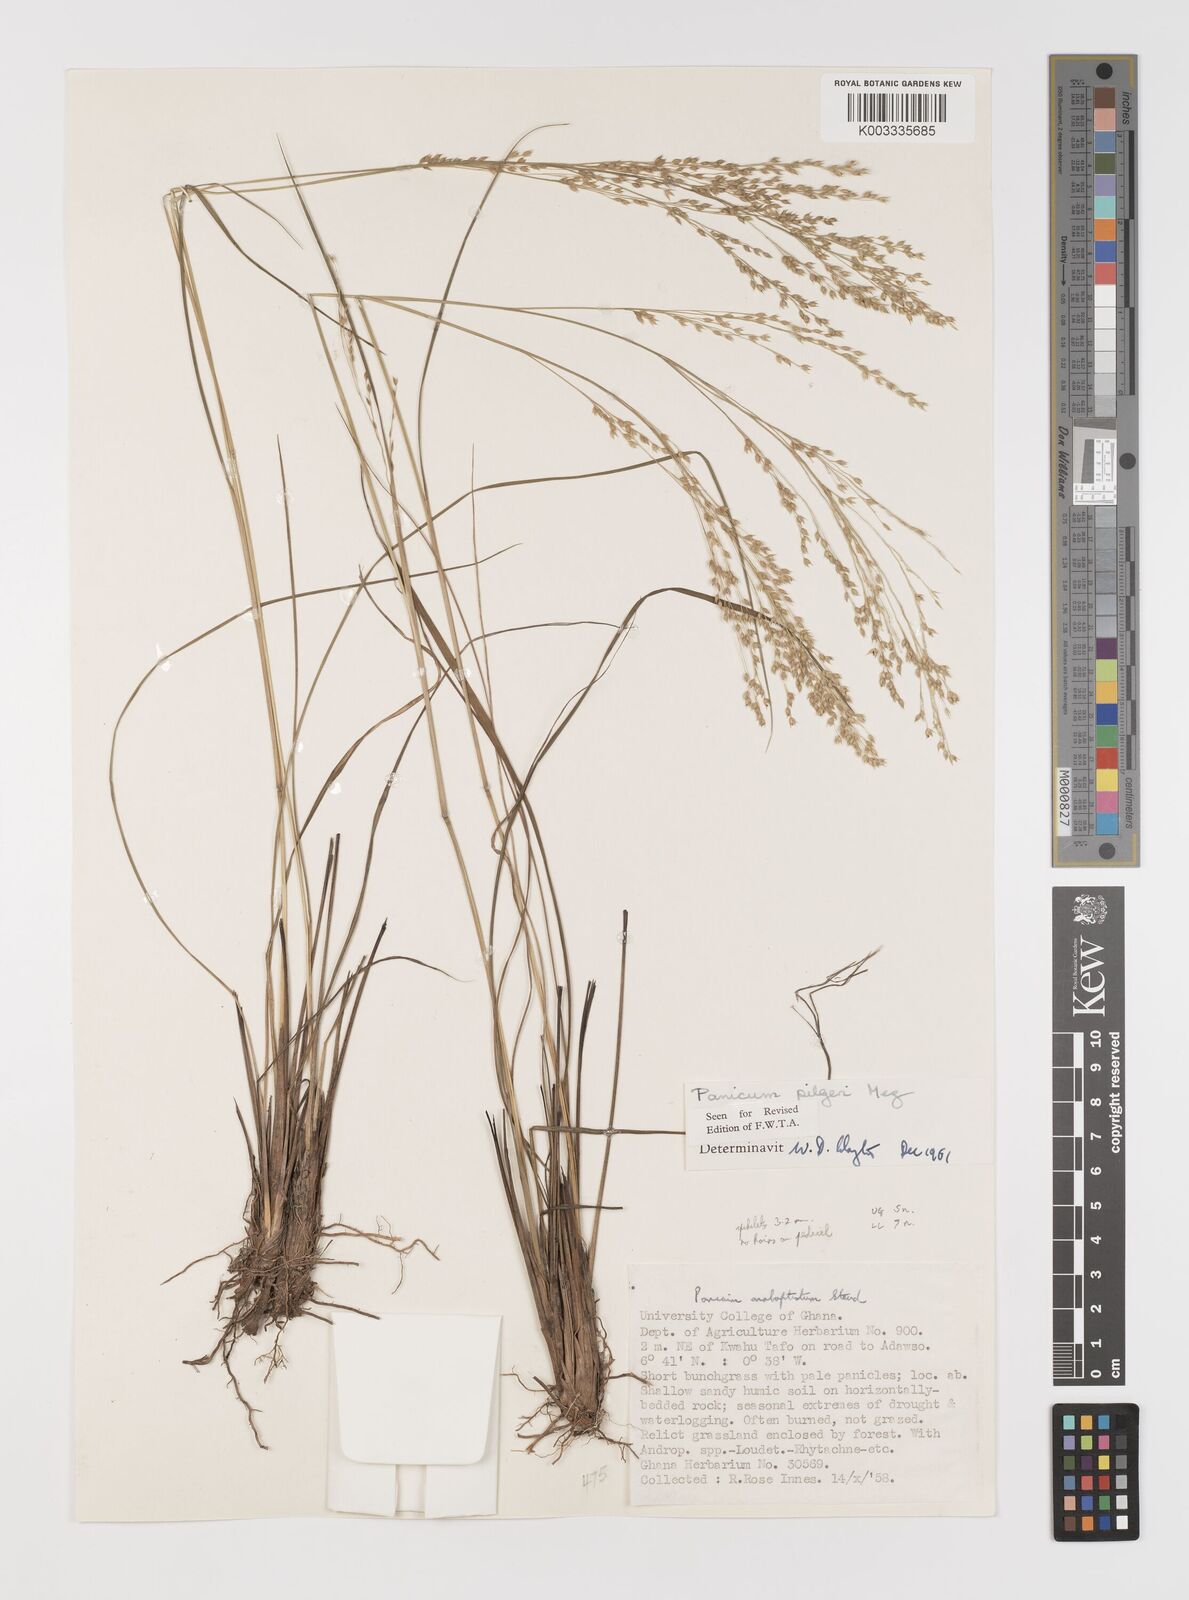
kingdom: Plantae
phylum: Tracheophyta
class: Liliopsida
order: Poales
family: Poaceae
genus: Panicum
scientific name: Panicum
